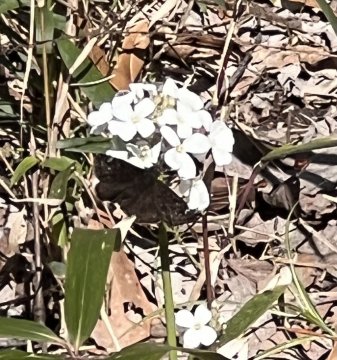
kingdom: Animalia
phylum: Arthropoda
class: Insecta
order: Lepidoptera
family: Hesperiidae
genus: Erynnis
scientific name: Erynnis
